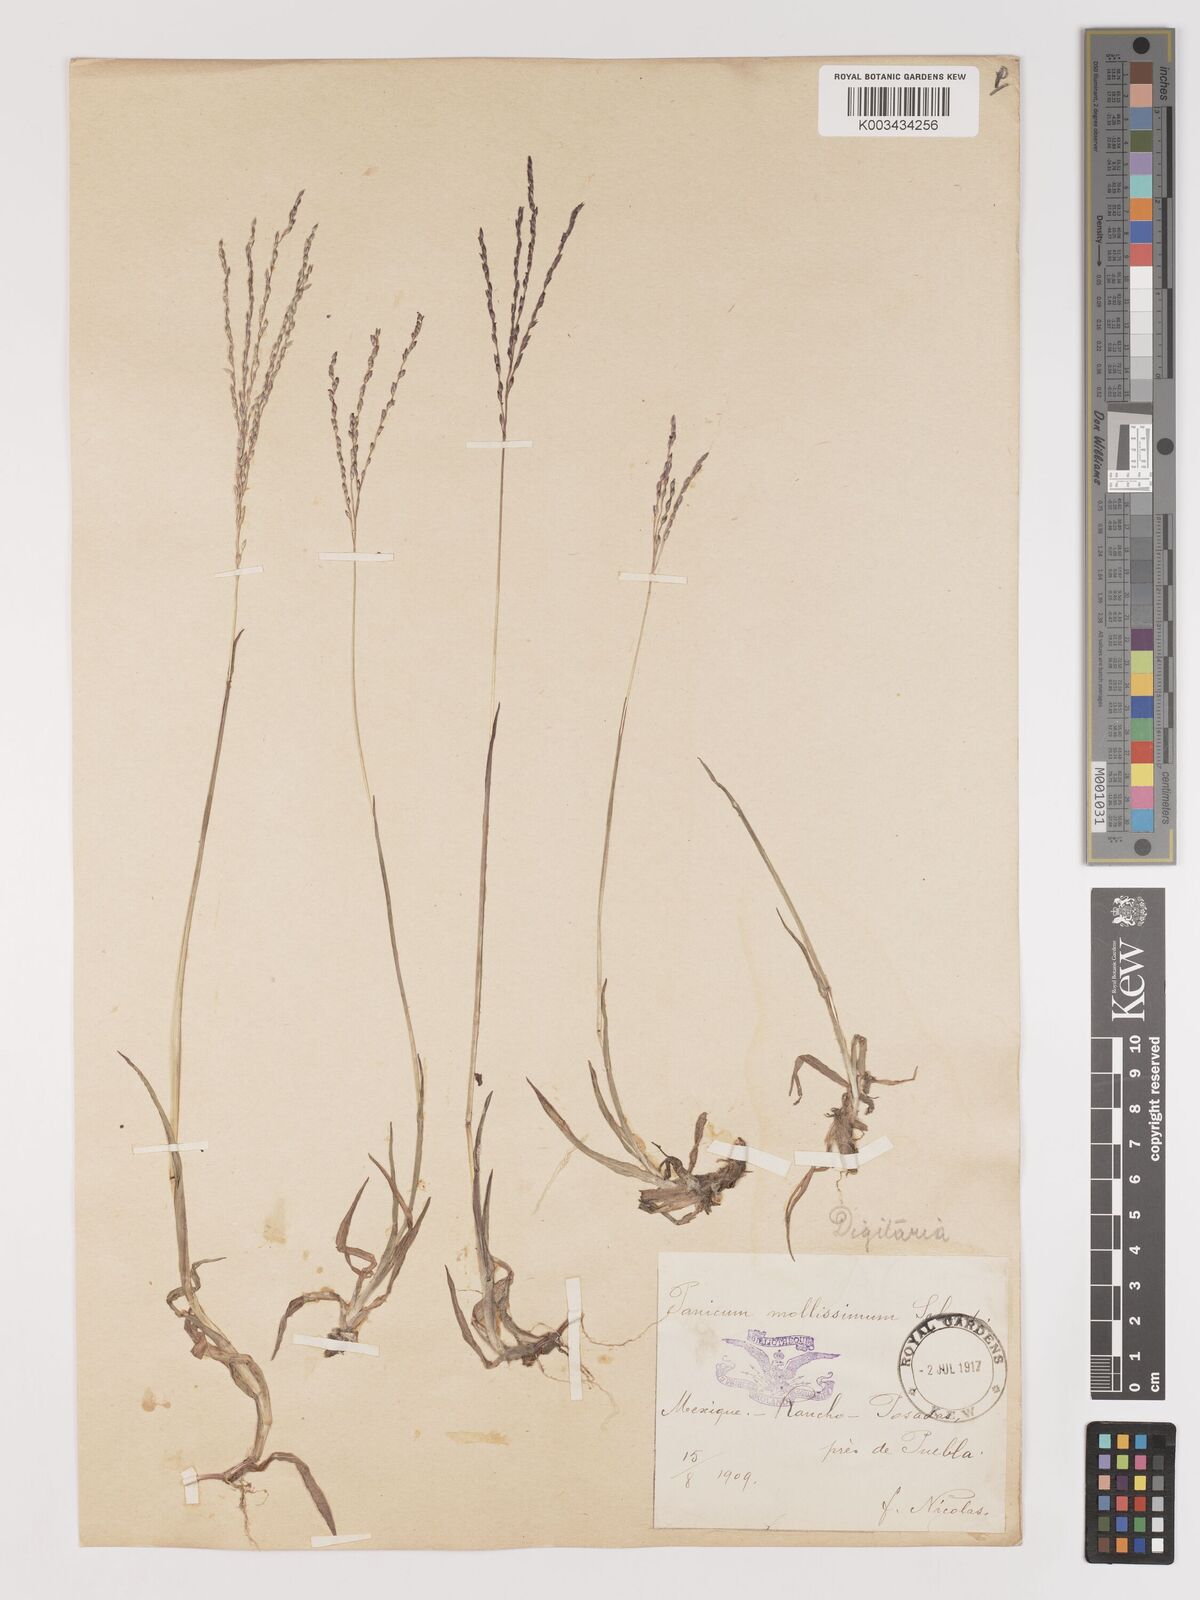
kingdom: Plantae
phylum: Tracheophyta
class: Liliopsida
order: Poales
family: Poaceae
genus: Digitaria
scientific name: Digitaria leucites
